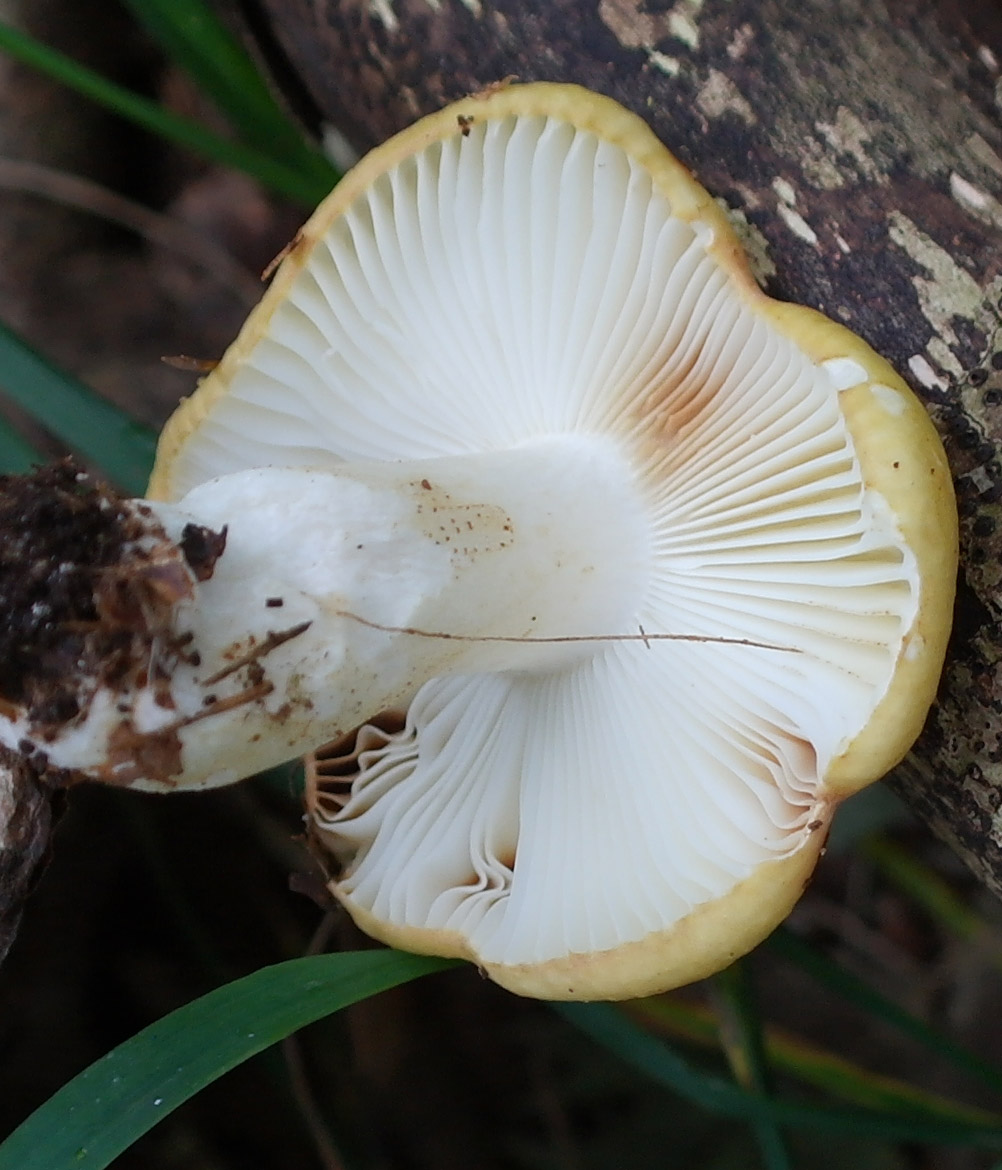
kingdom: Fungi
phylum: Basidiomycota
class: Agaricomycetes
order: Russulales
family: Russulaceae
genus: Russula
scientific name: Russula ochroleuca
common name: okkergul skørhat
